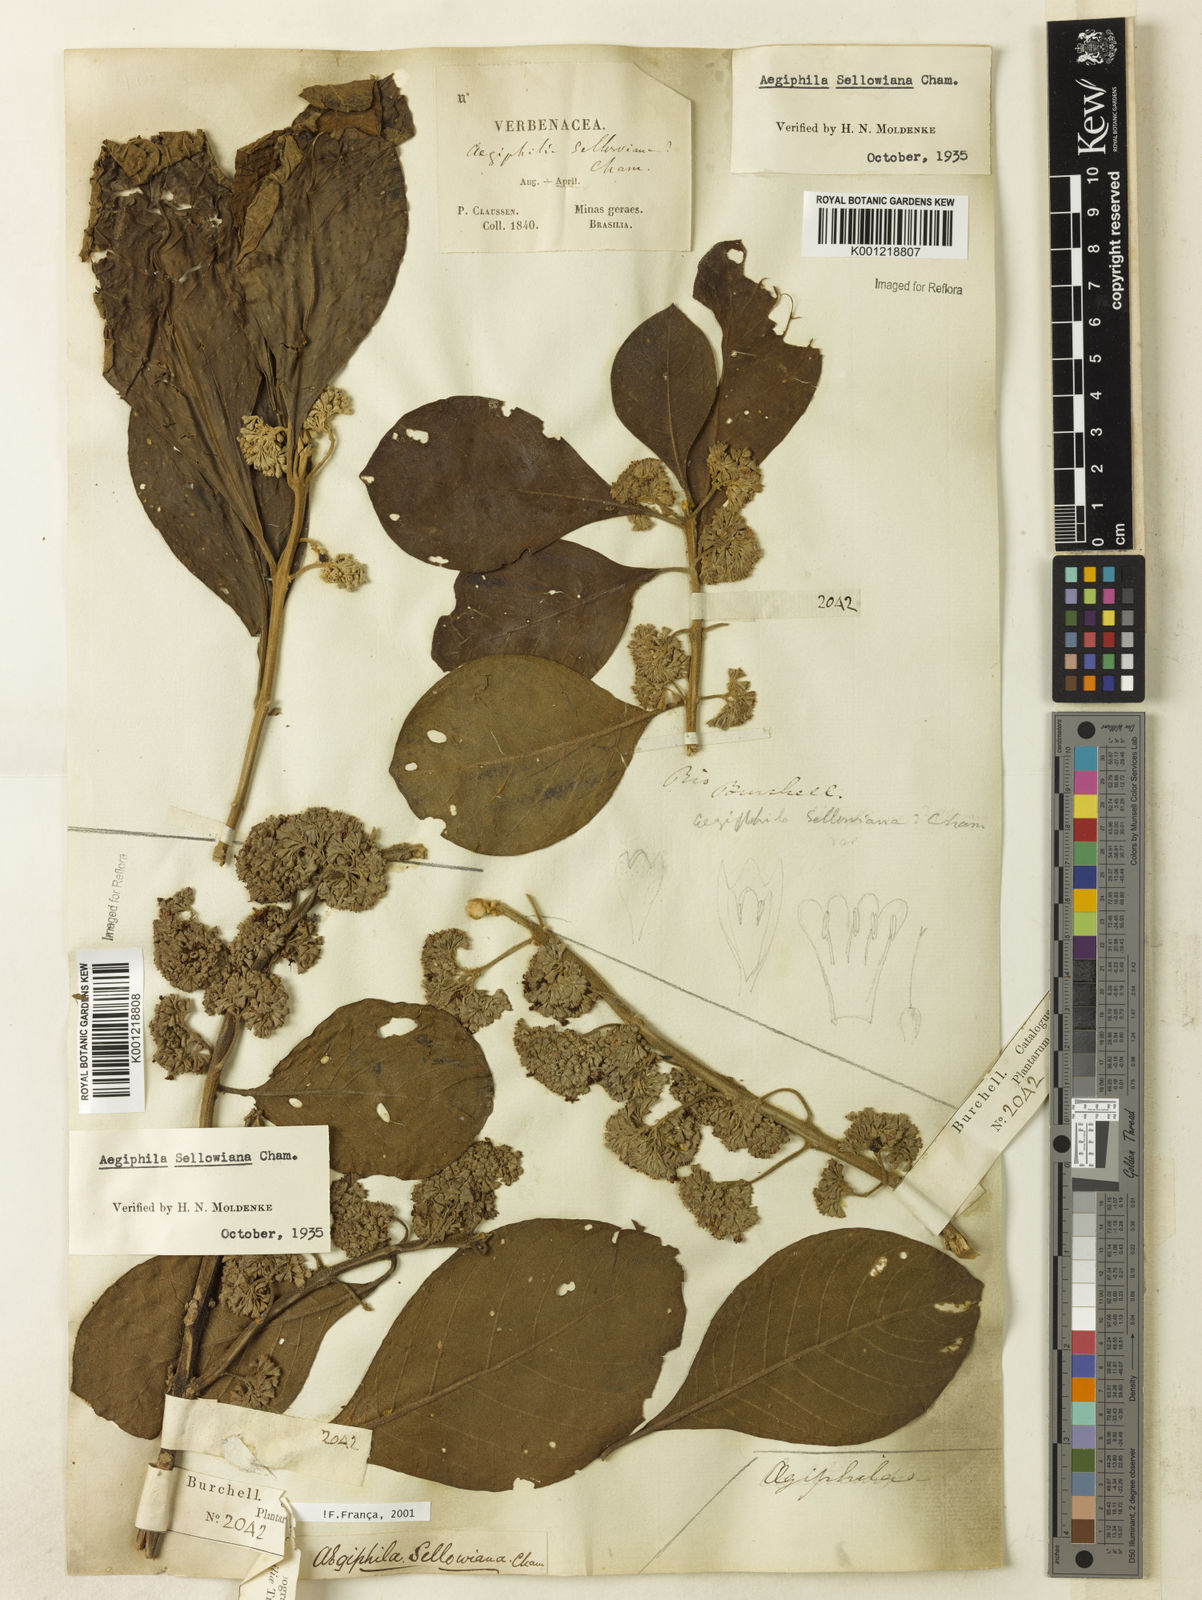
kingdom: Plantae
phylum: Tracheophyta
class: Magnoliopsida
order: Lamiales
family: Lamiaceae
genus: Aegiphila
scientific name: Aegiphila verticillata
